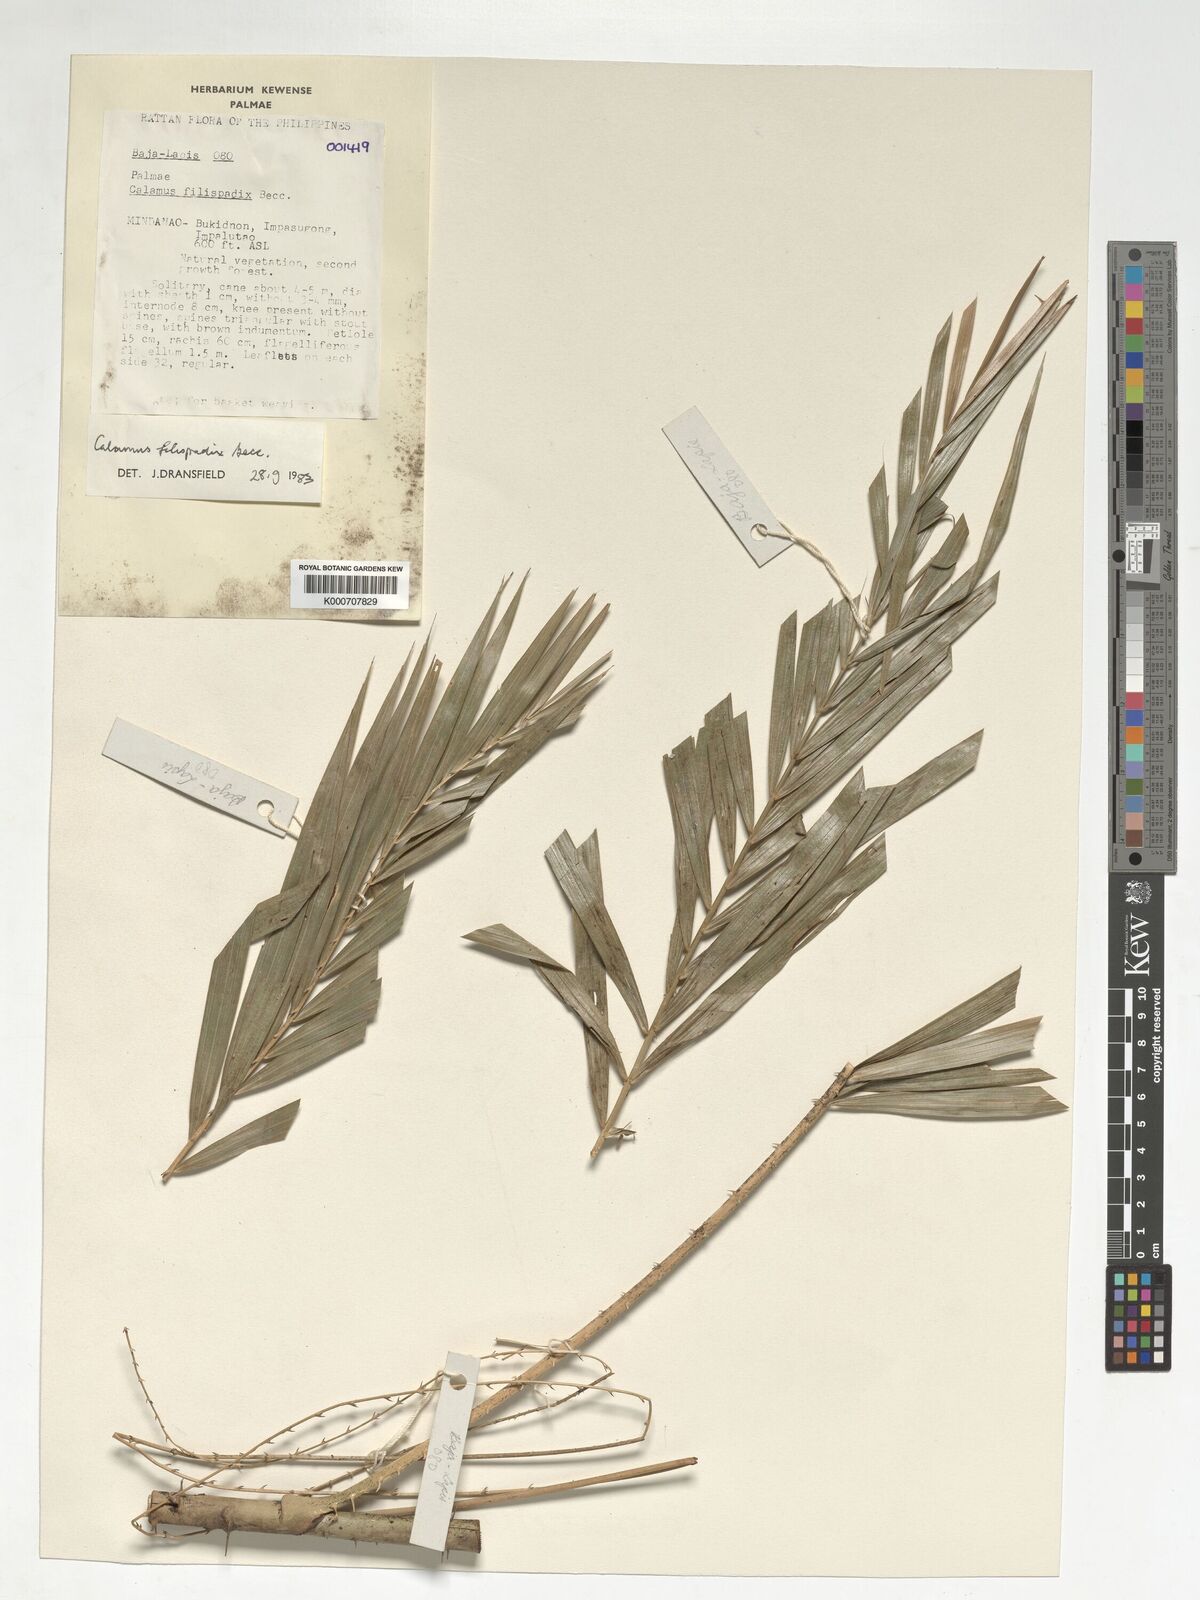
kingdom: Plantae
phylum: Tracheophyta
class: Liliopsida
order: Arecales
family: Arecaceae
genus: Calamus
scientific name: Calamus filispadix
